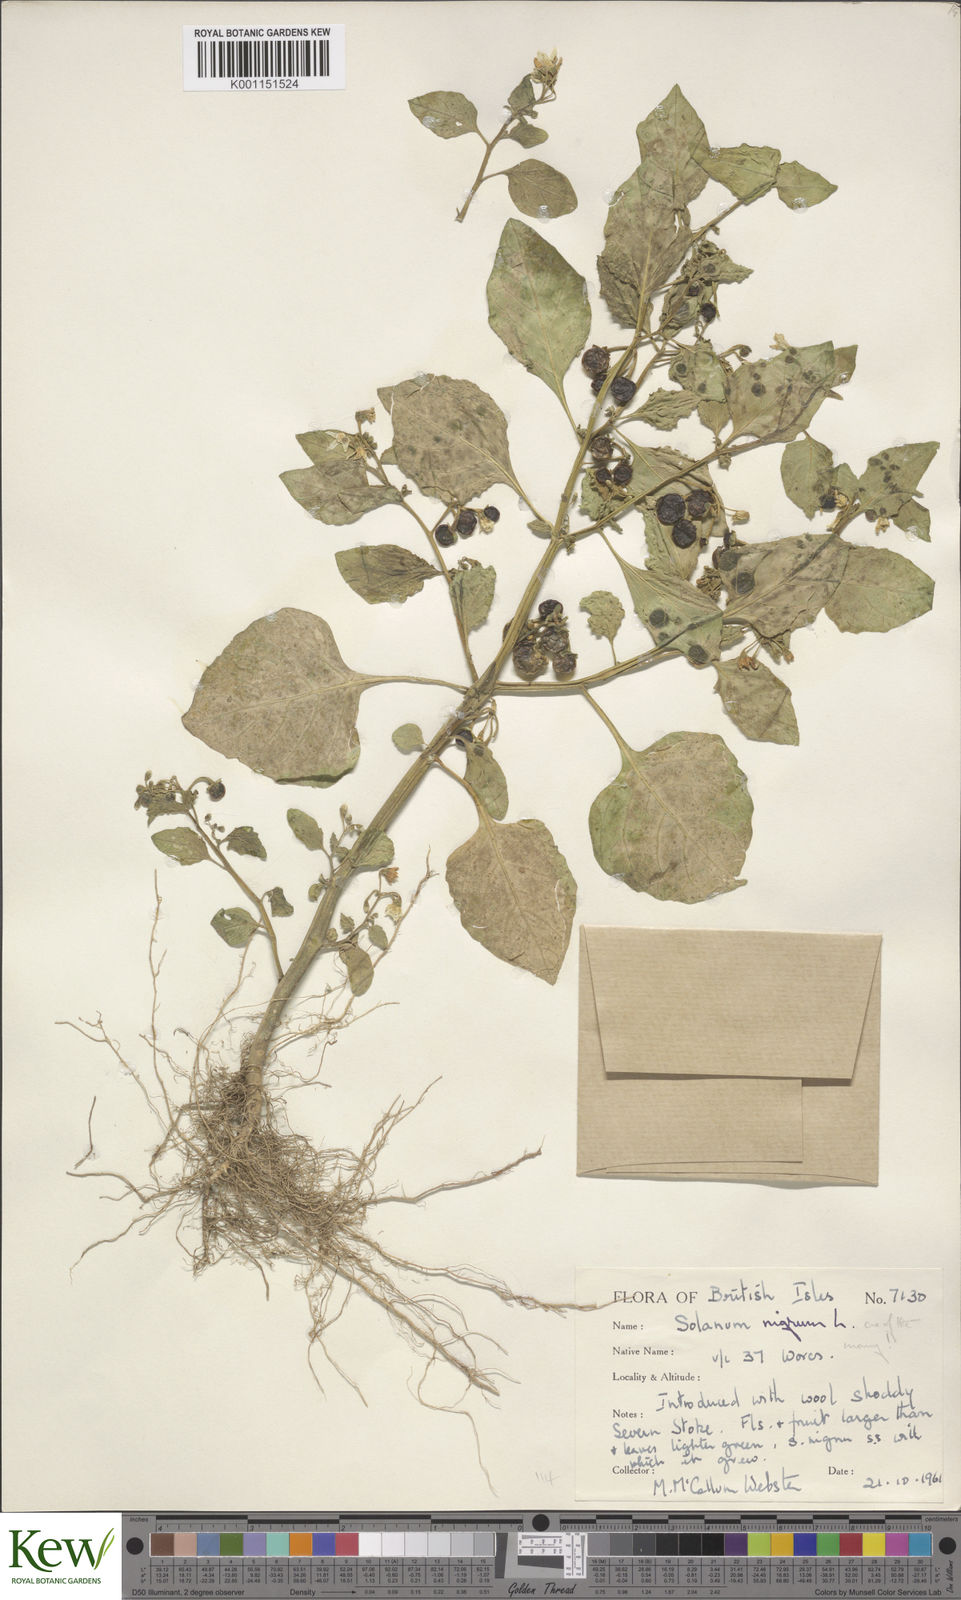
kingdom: Plantae
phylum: Tracheophyta
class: Magnoliopsida
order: Solanales
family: Solanaceae
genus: Solanum
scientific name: Solanum nigrum
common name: Black nightshade
